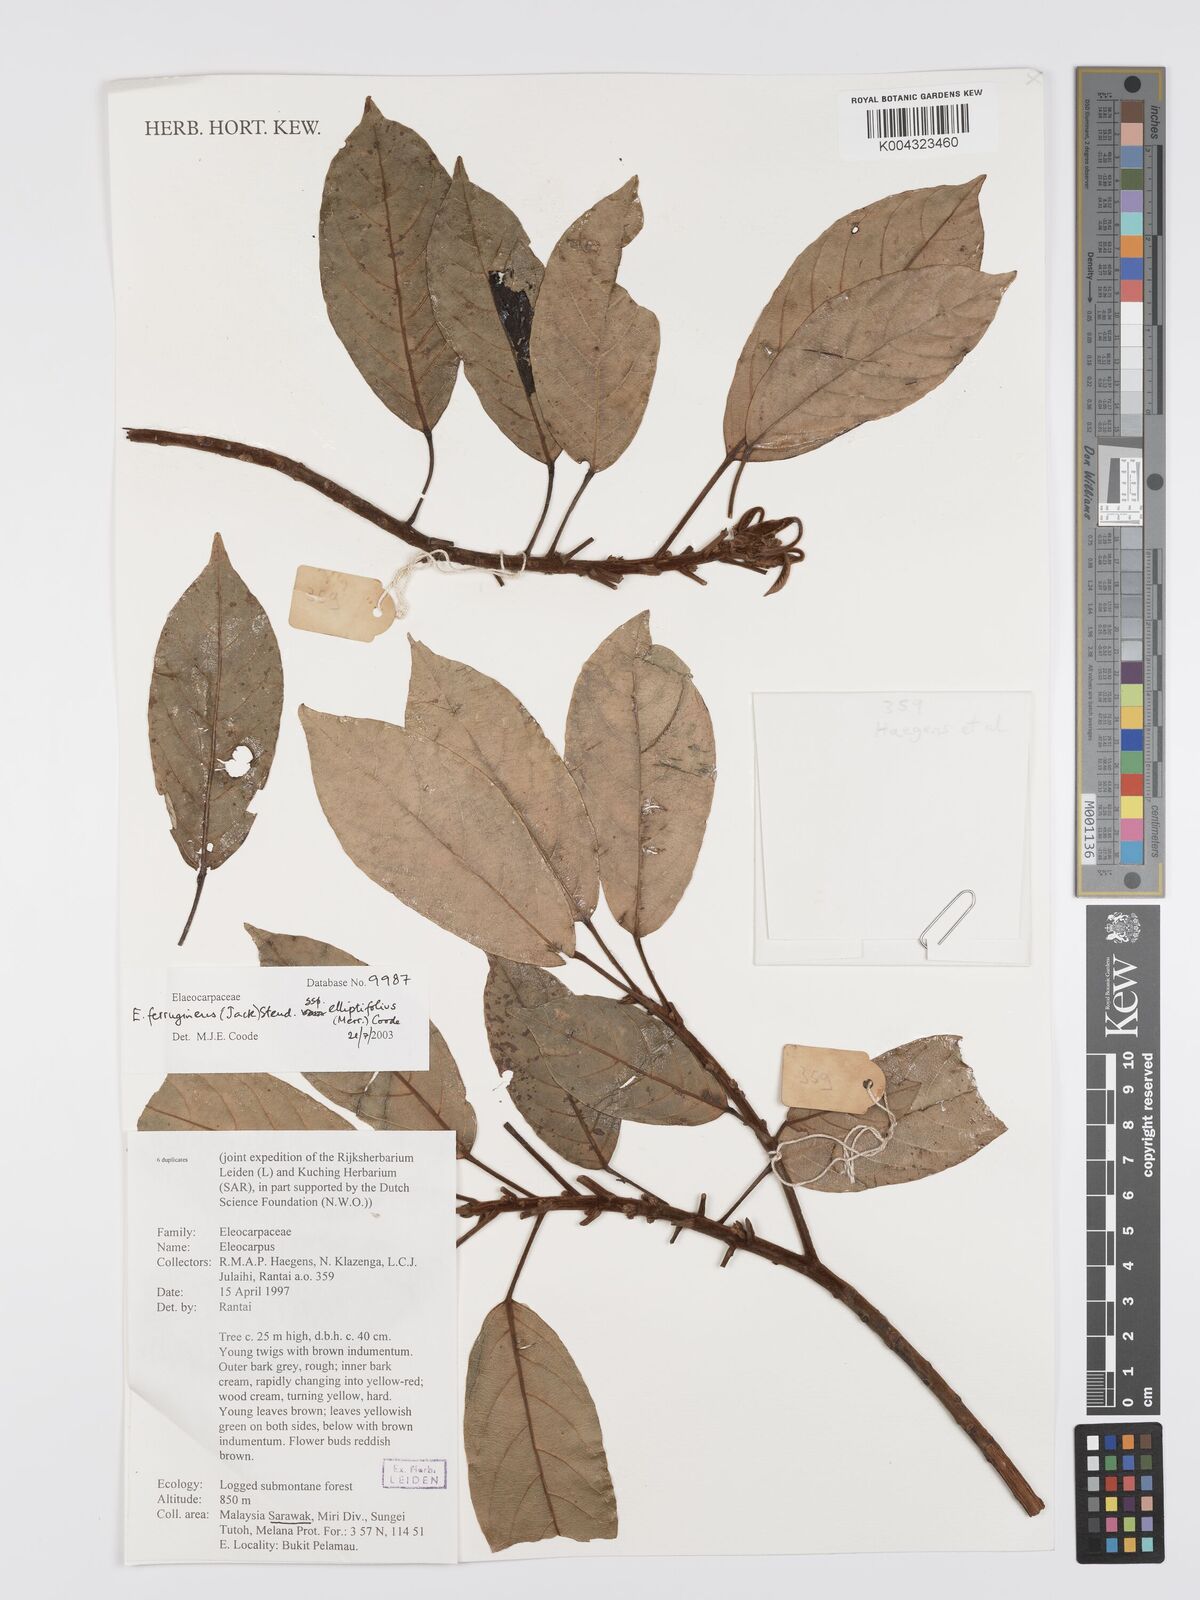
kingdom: Plantae
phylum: Tracheophyta
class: Magnoliopsida
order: Oxalidales
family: Elaeocarpaceae
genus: Elaeocarpus
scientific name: Elaeocarpus ferrugineus
